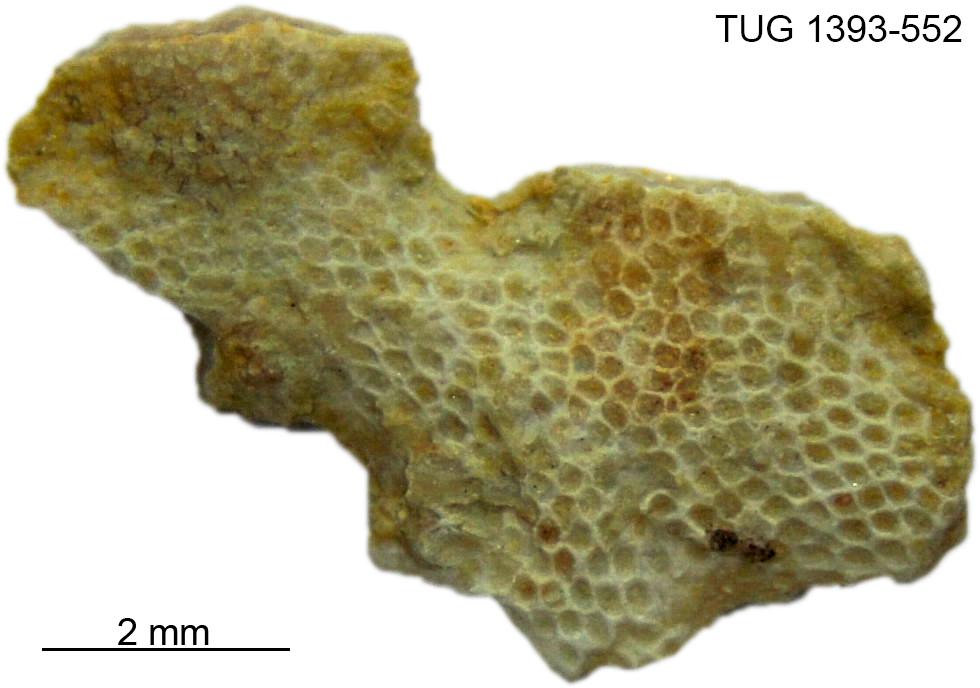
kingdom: Animalia
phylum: Bryozoa
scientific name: Bryozoa
